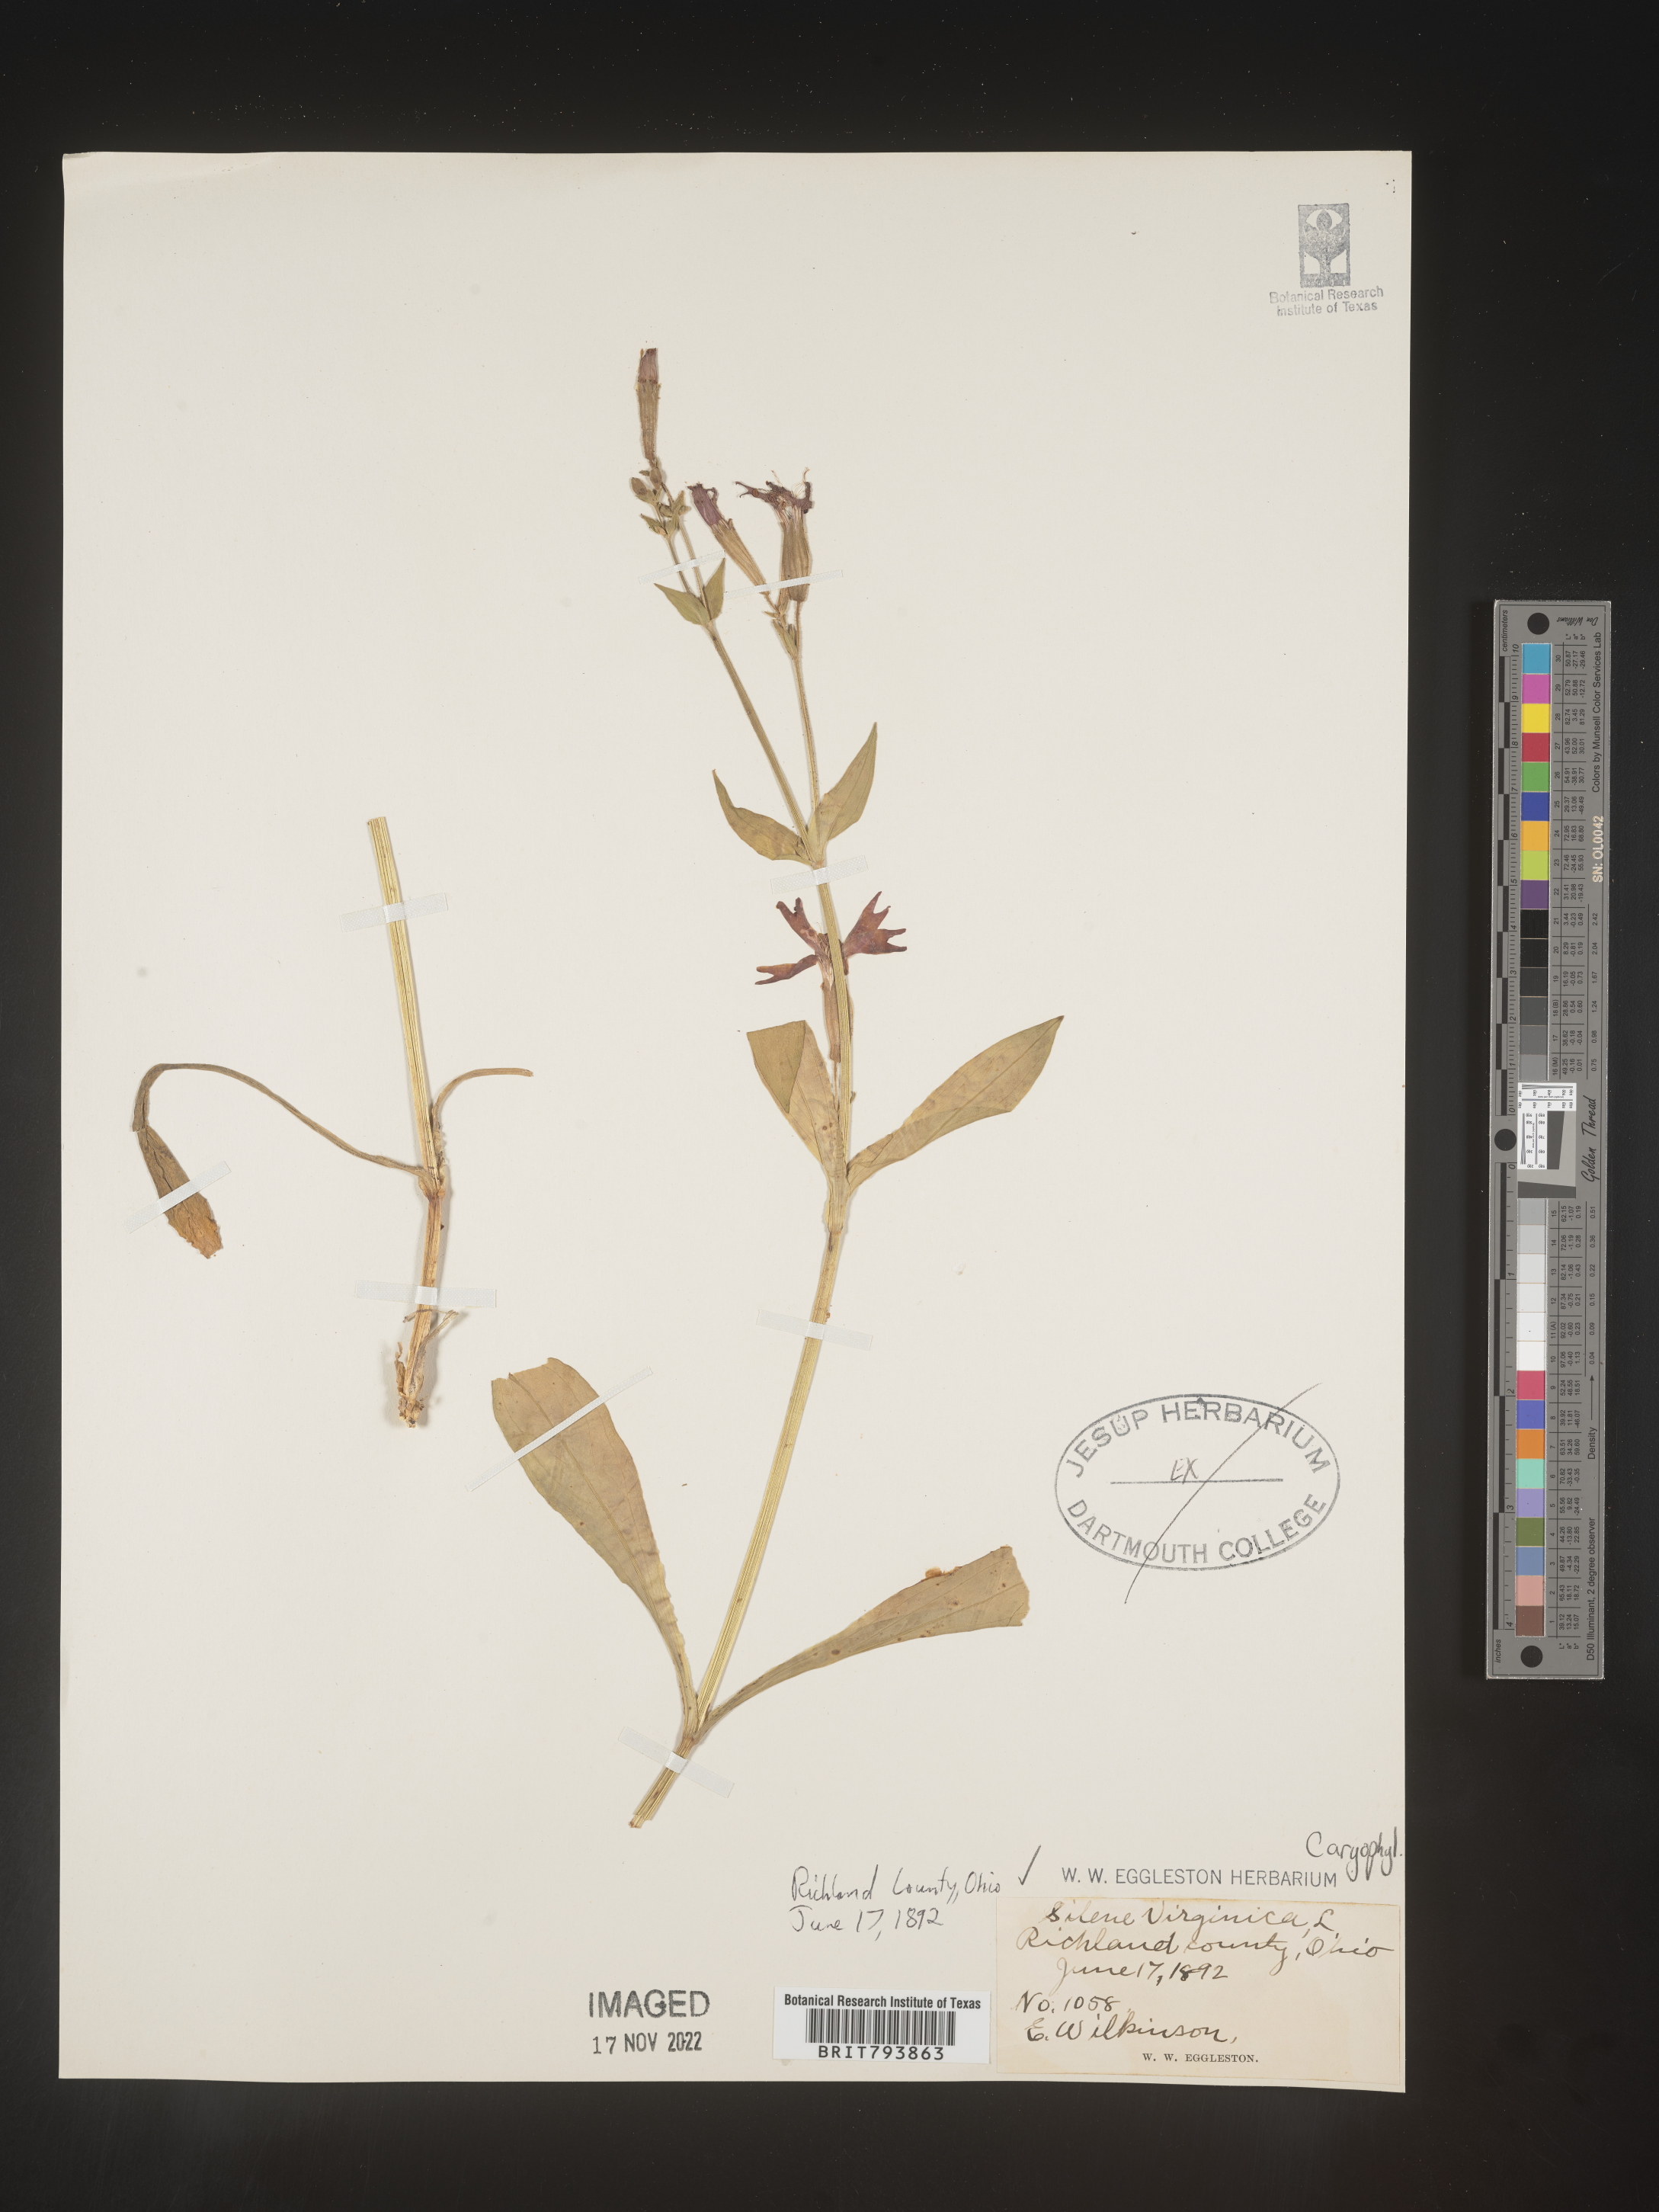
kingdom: Plantae
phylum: Tracheophyta
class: Magnoliopsida
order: Caryophyllales
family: Caryophyllaceae
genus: Silene
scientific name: Silene virginica
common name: Fire-pink
